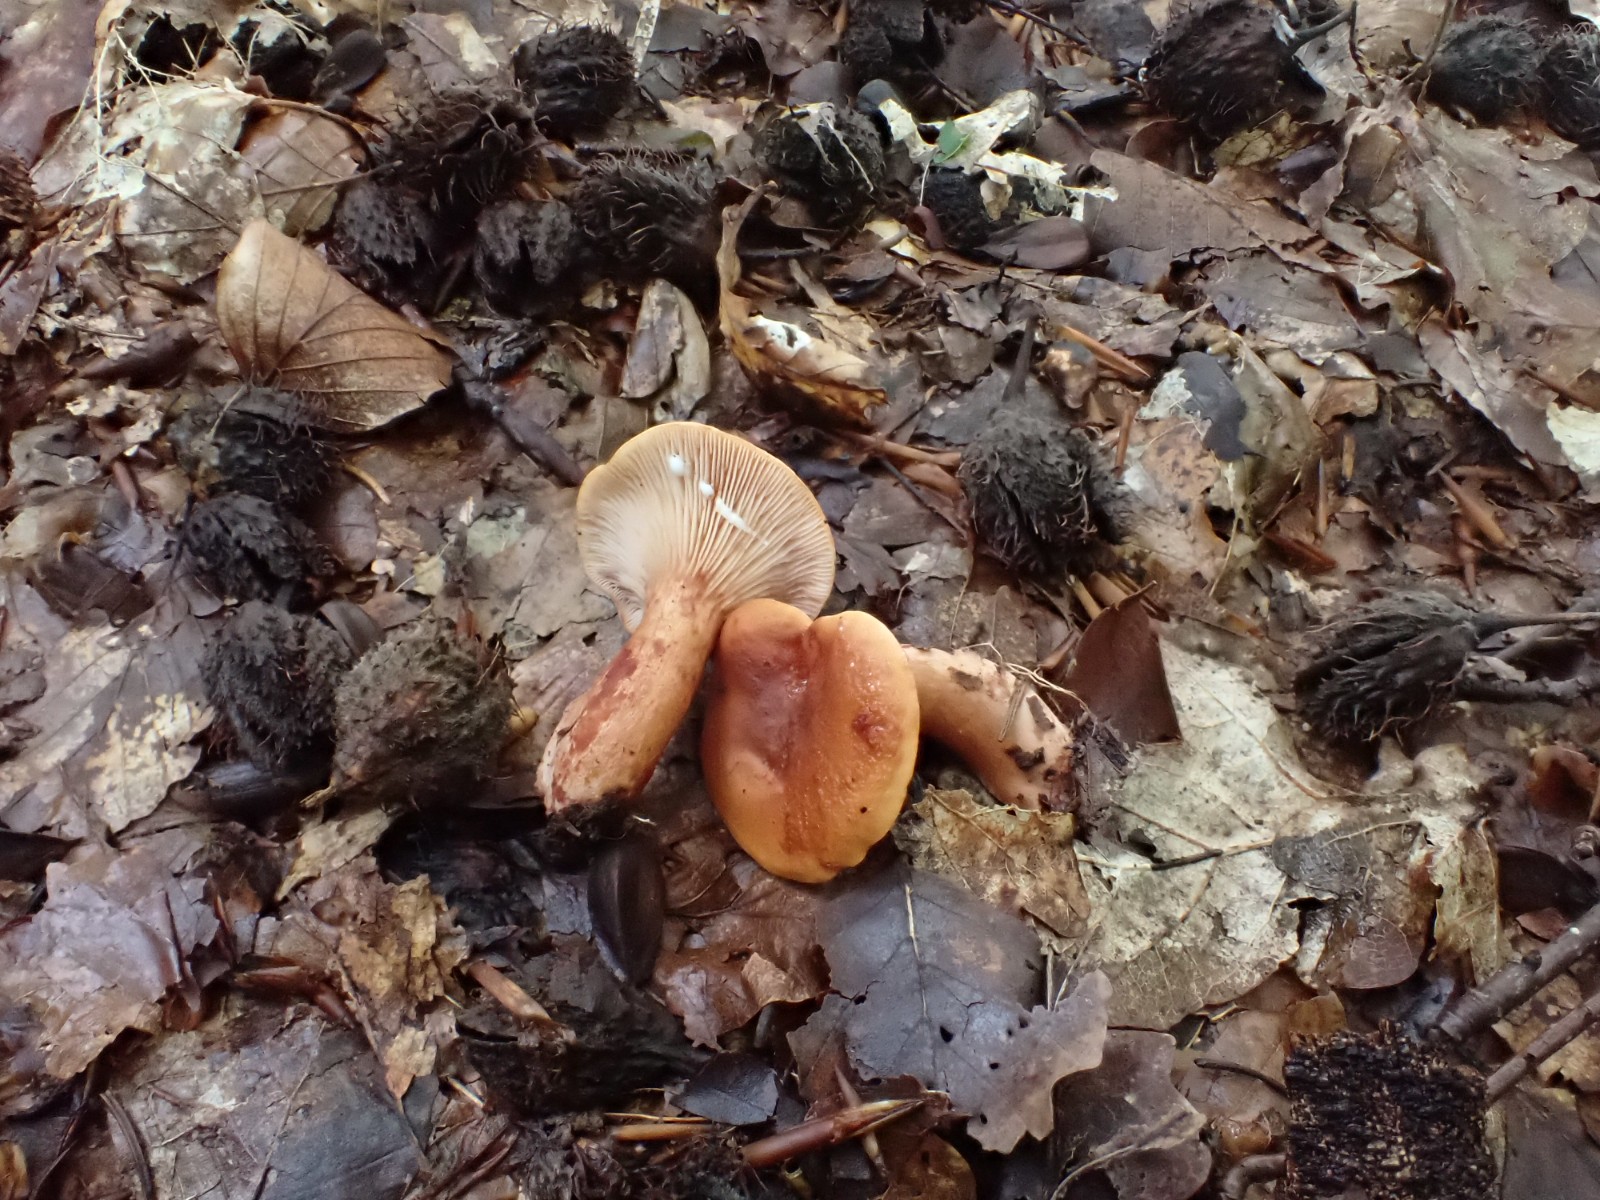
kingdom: Fungi
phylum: Basidiomycota
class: Agaricomycetes
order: Russulales
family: Russulaceae
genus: Lactarius
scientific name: Lactarius fulvissimus
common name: ræve-mælkehat
